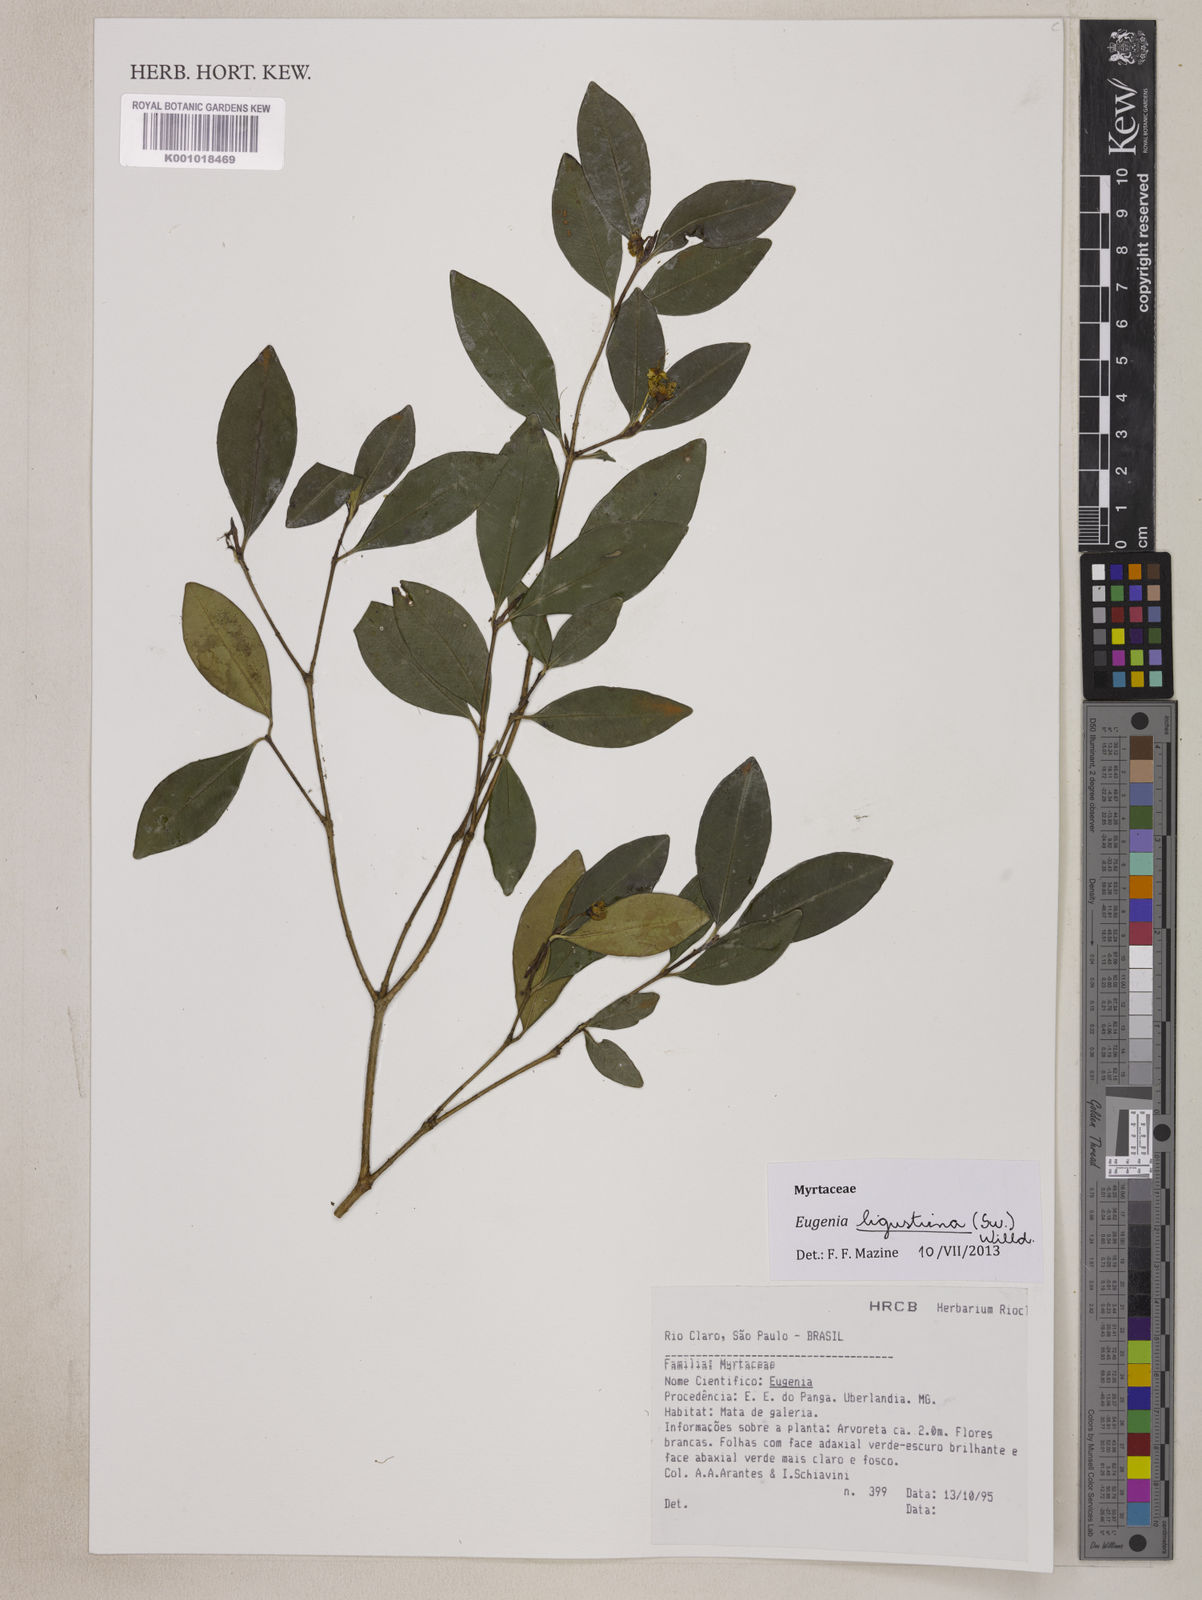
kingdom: Plantae
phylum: Tracheophyta
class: Magnoliopsida
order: Myrtales
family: Myrtaceae
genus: Eugenia
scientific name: Eugenia ligustrina
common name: Privet stopper
